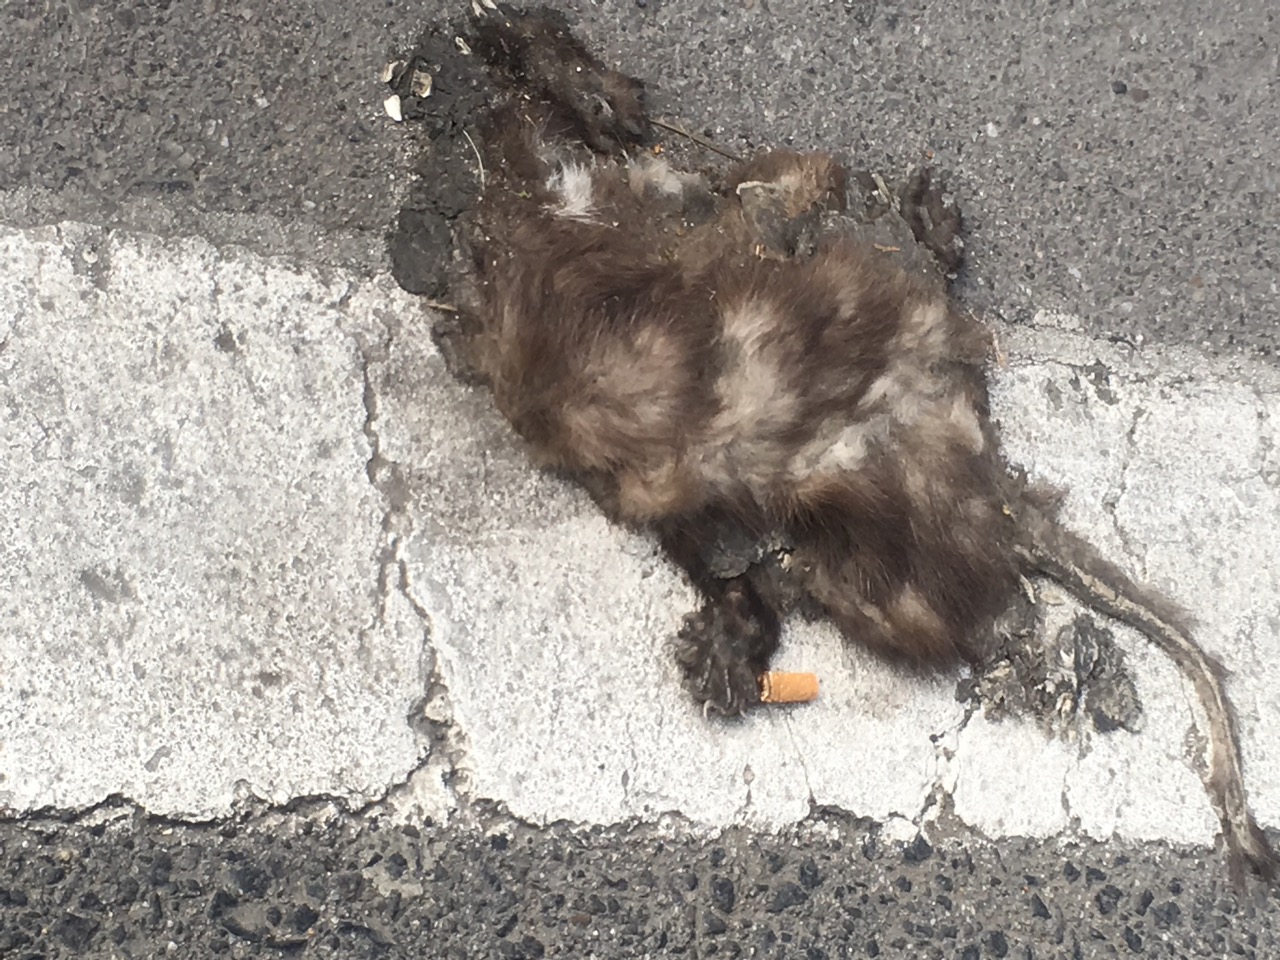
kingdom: Animalia
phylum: Chordata
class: Mammalia
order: Carnivora
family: Mustelidae
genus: Martes
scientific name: Martes foina
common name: Beech marten
